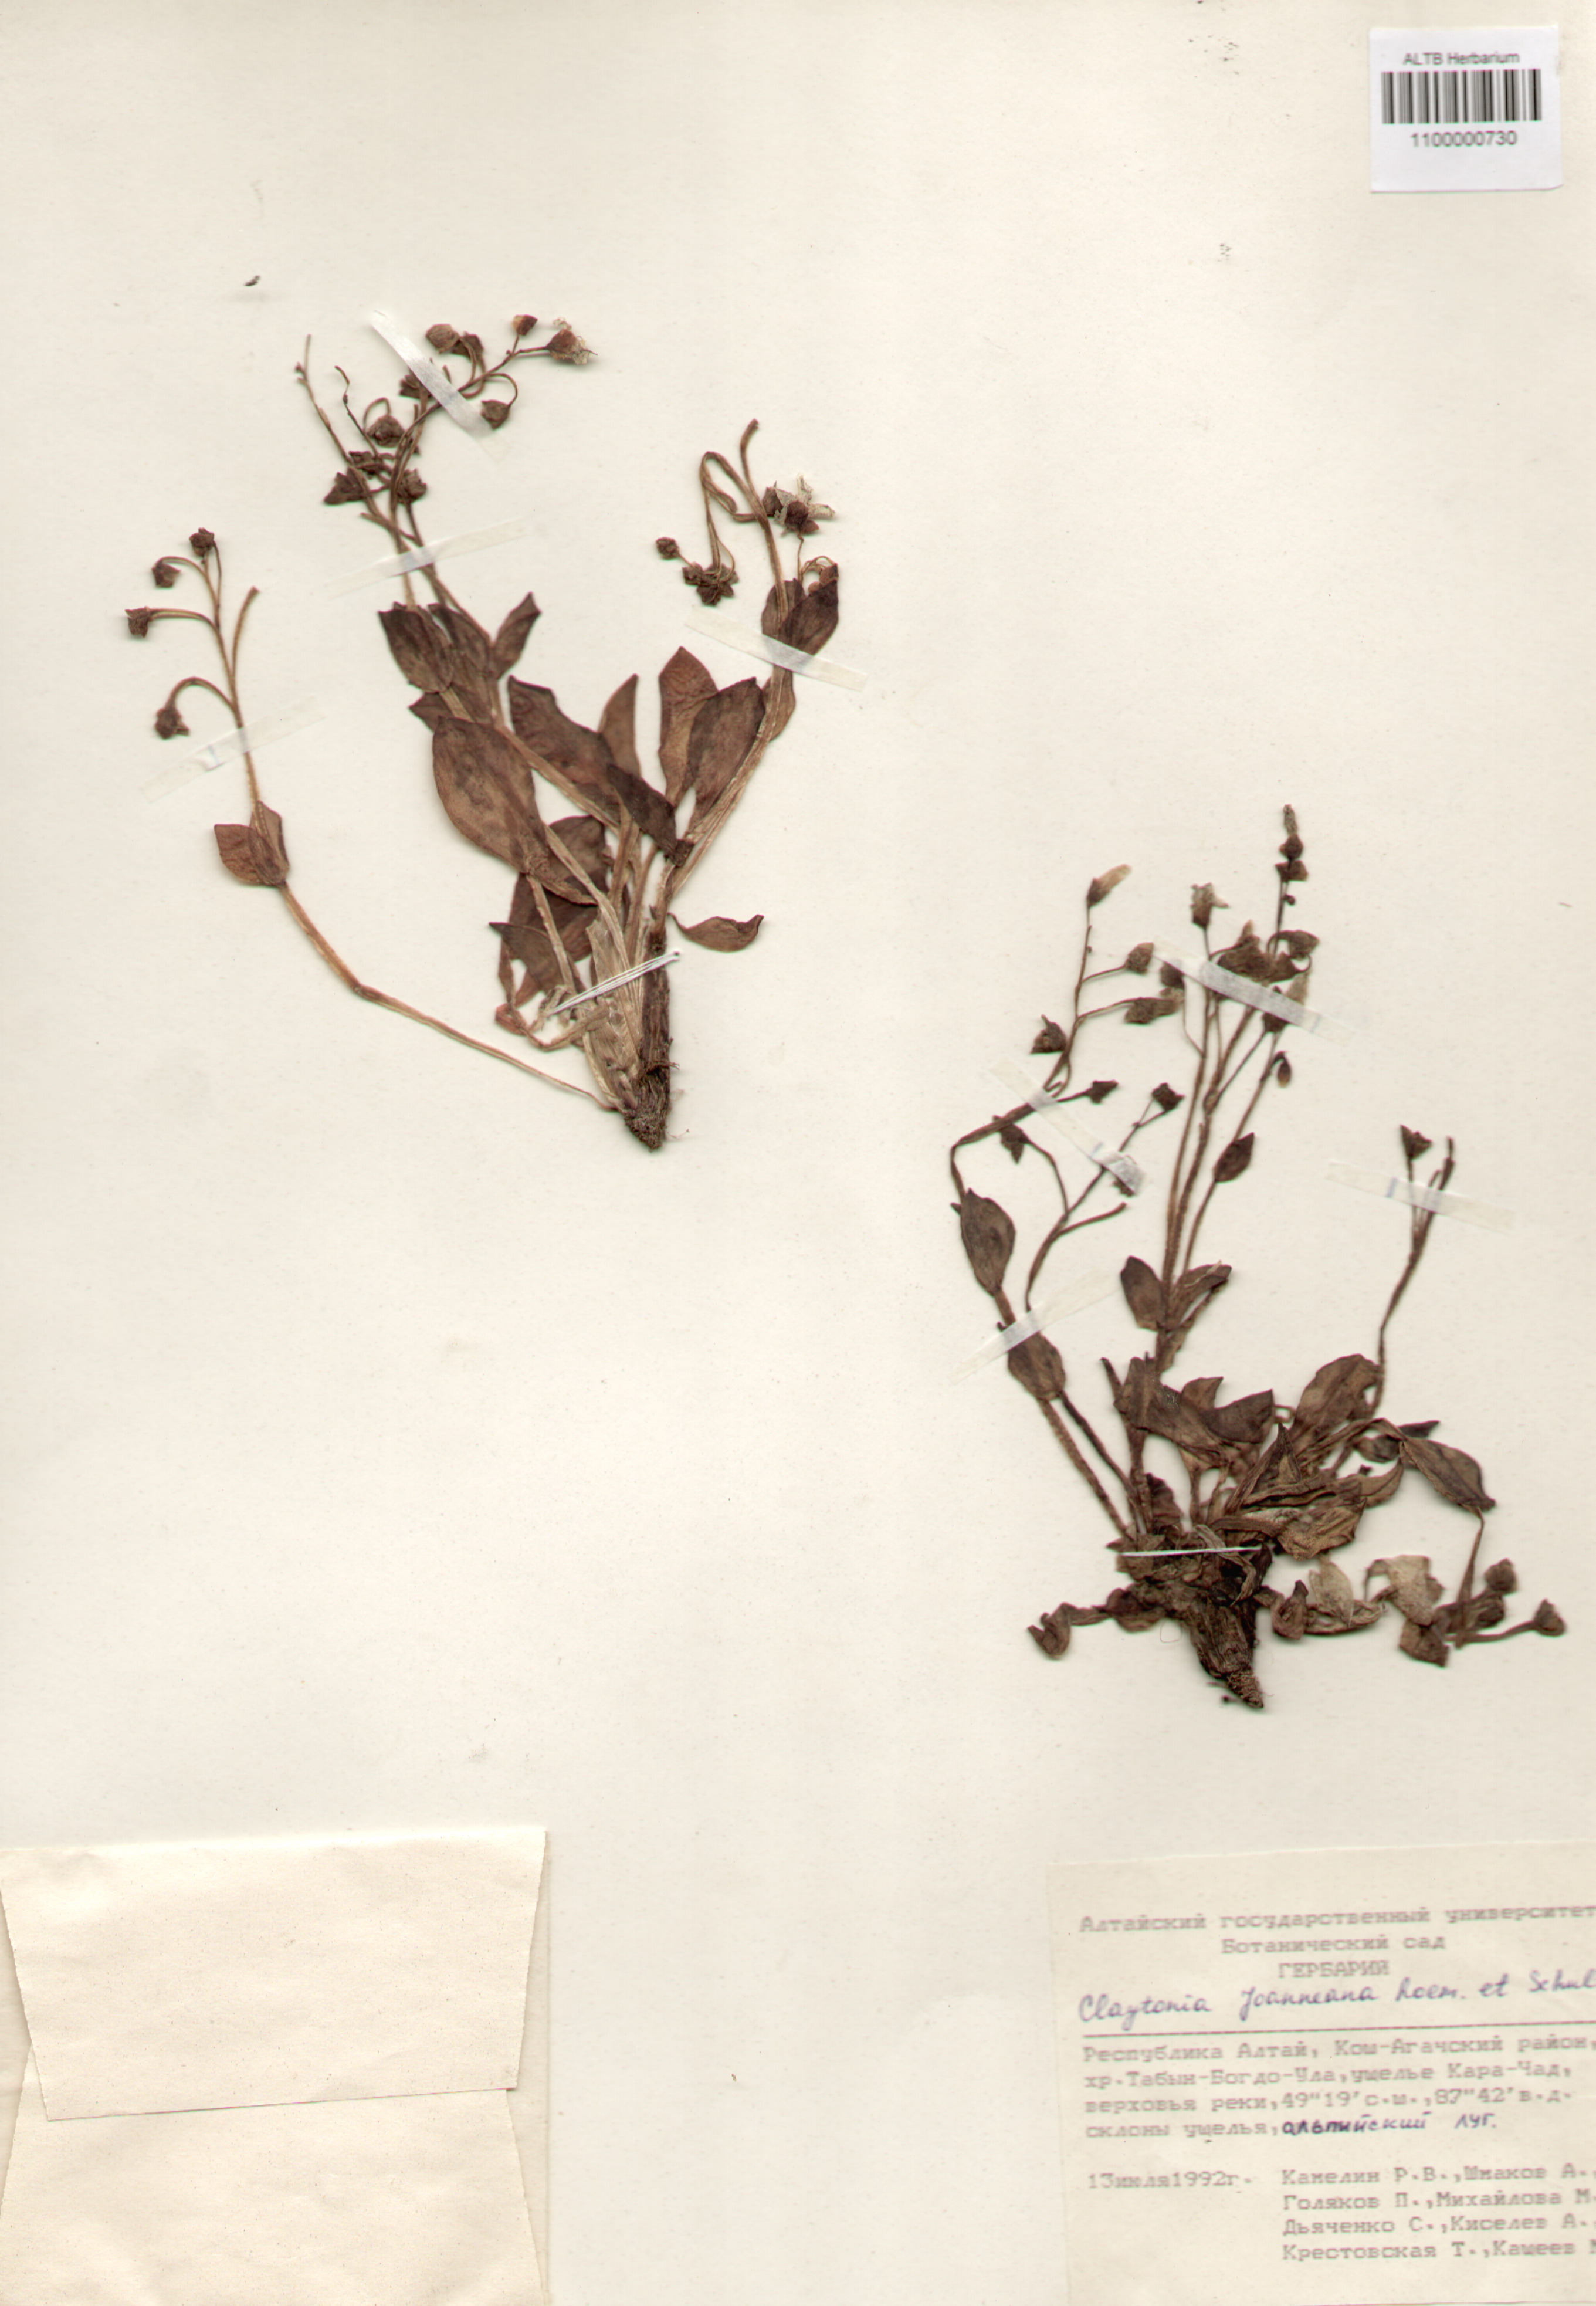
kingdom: Plantae
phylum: Tracheophyta
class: Magnoliopsida
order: Caryophyllales
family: Montiaceae
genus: Claytonia
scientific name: Claytonia joanneana
